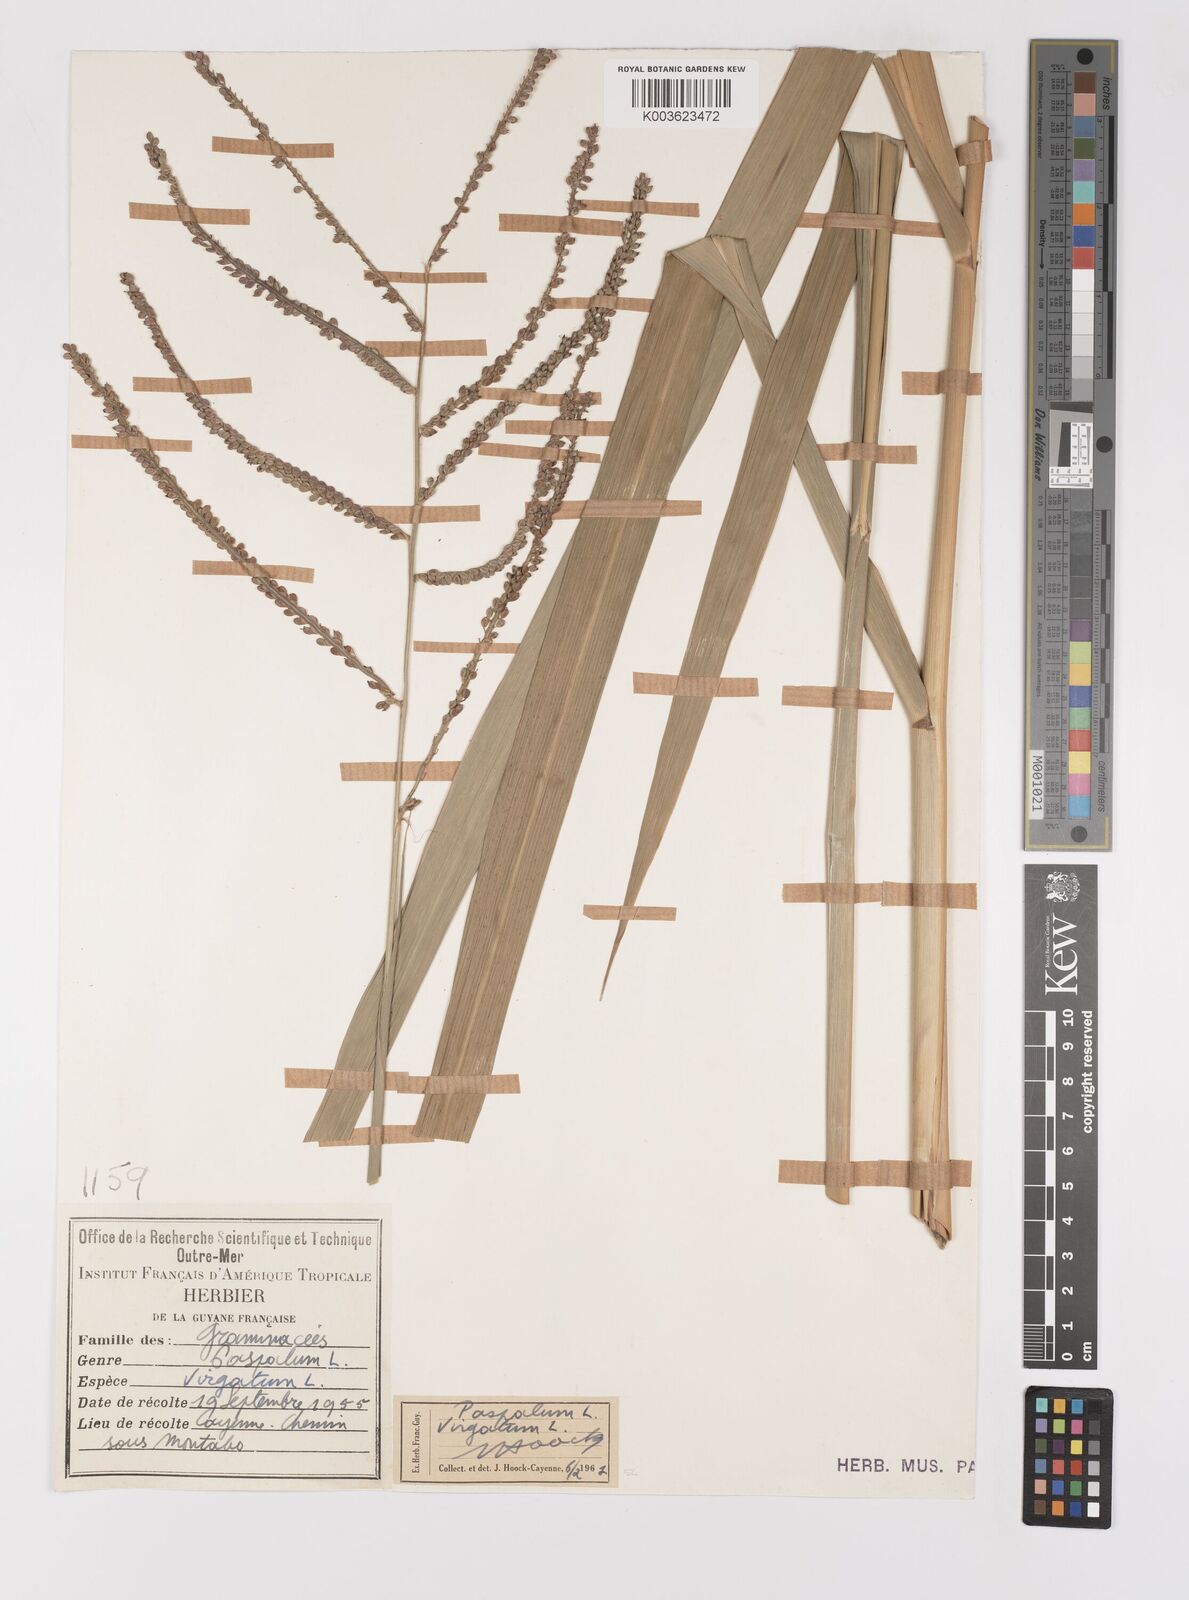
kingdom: Plantae
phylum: Tracheophyta
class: Liliopsida
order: Poales
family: Poaceae
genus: Paspalum
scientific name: Paspalum virgatum
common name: Talquezal
